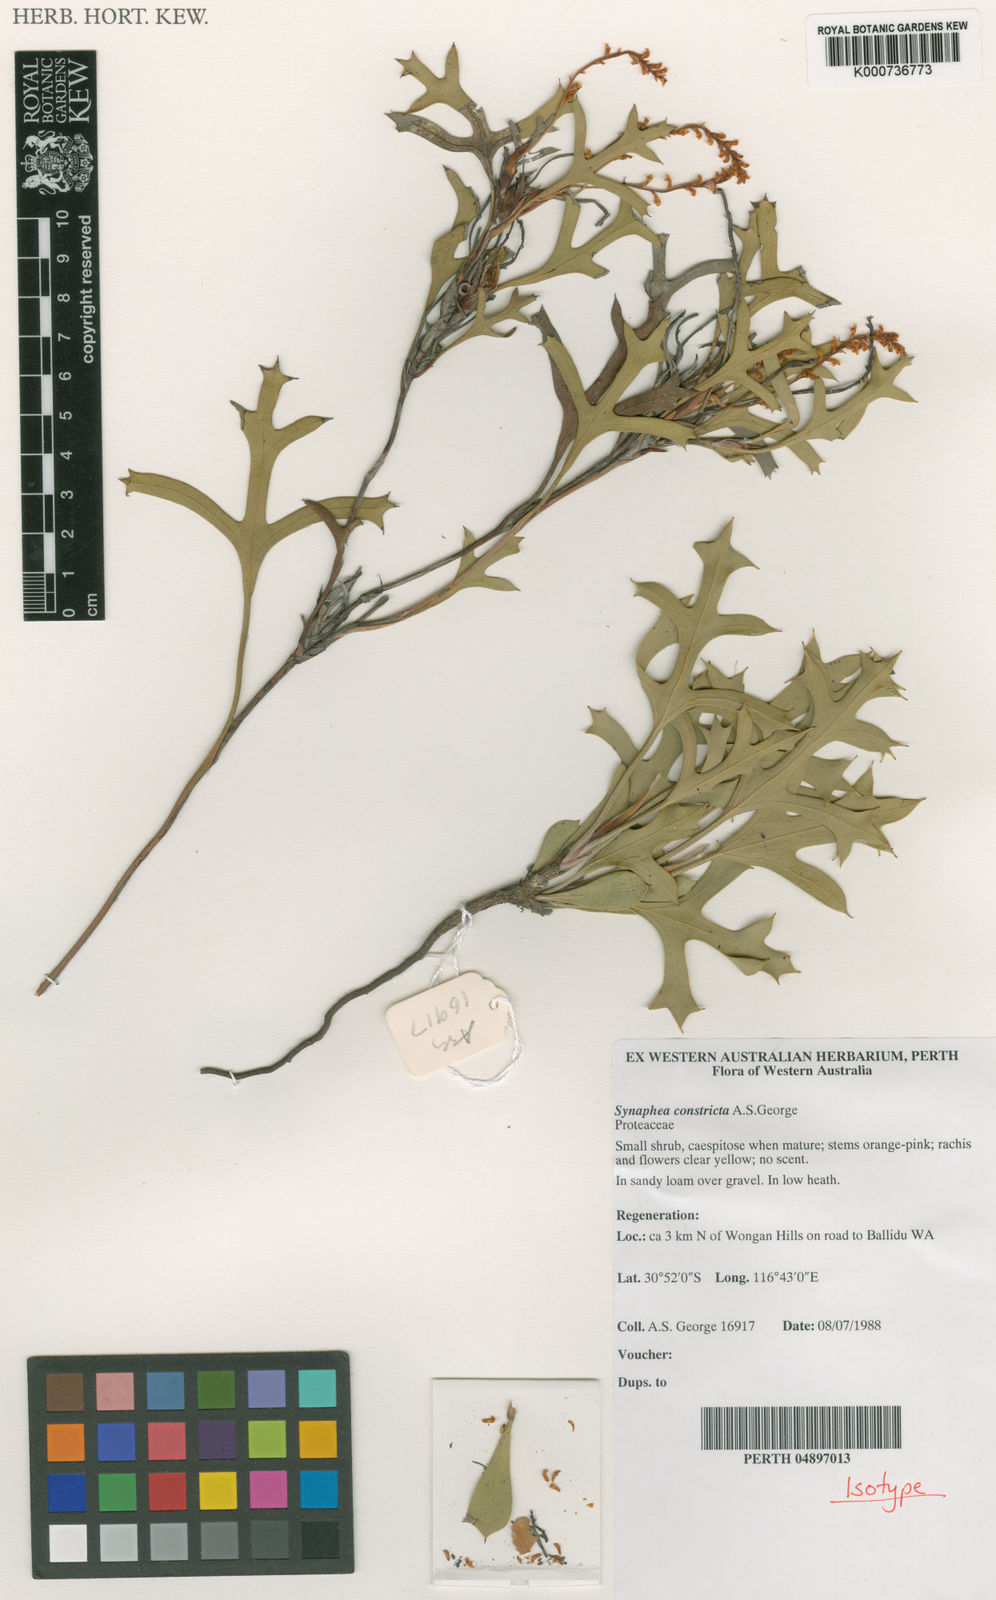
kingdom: Plantae
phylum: Tracheophyta
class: Magnoliopsida
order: Proteales
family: Proteaceae
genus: Synaphea
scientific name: Synaphea constricta
